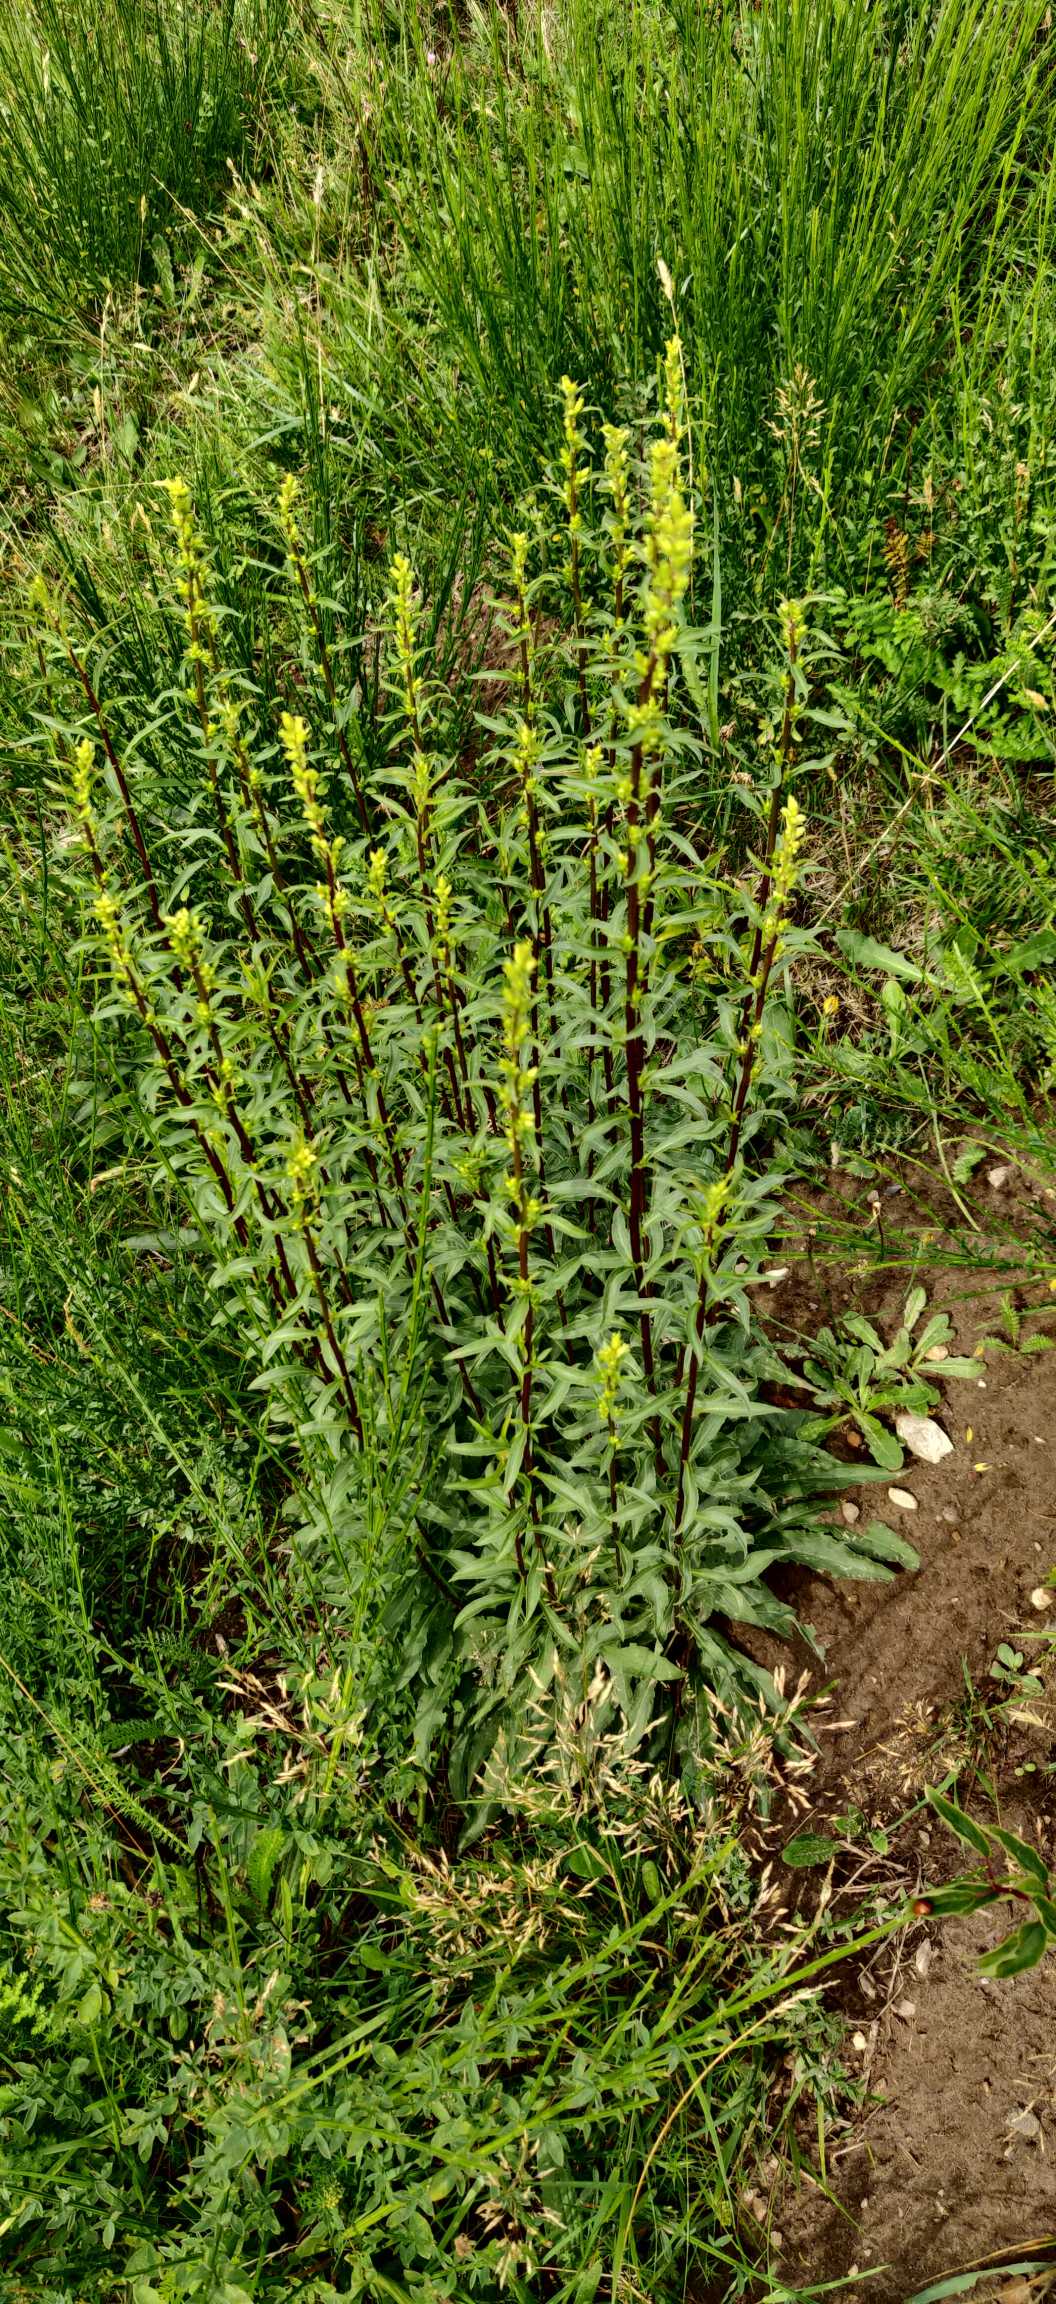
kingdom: Plantae
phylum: Tracheophyta
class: Magnoliopsida
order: Asterales
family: Asteraceae
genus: Solidago
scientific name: Solidago virgaurea
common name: Almindelig gyldenris
